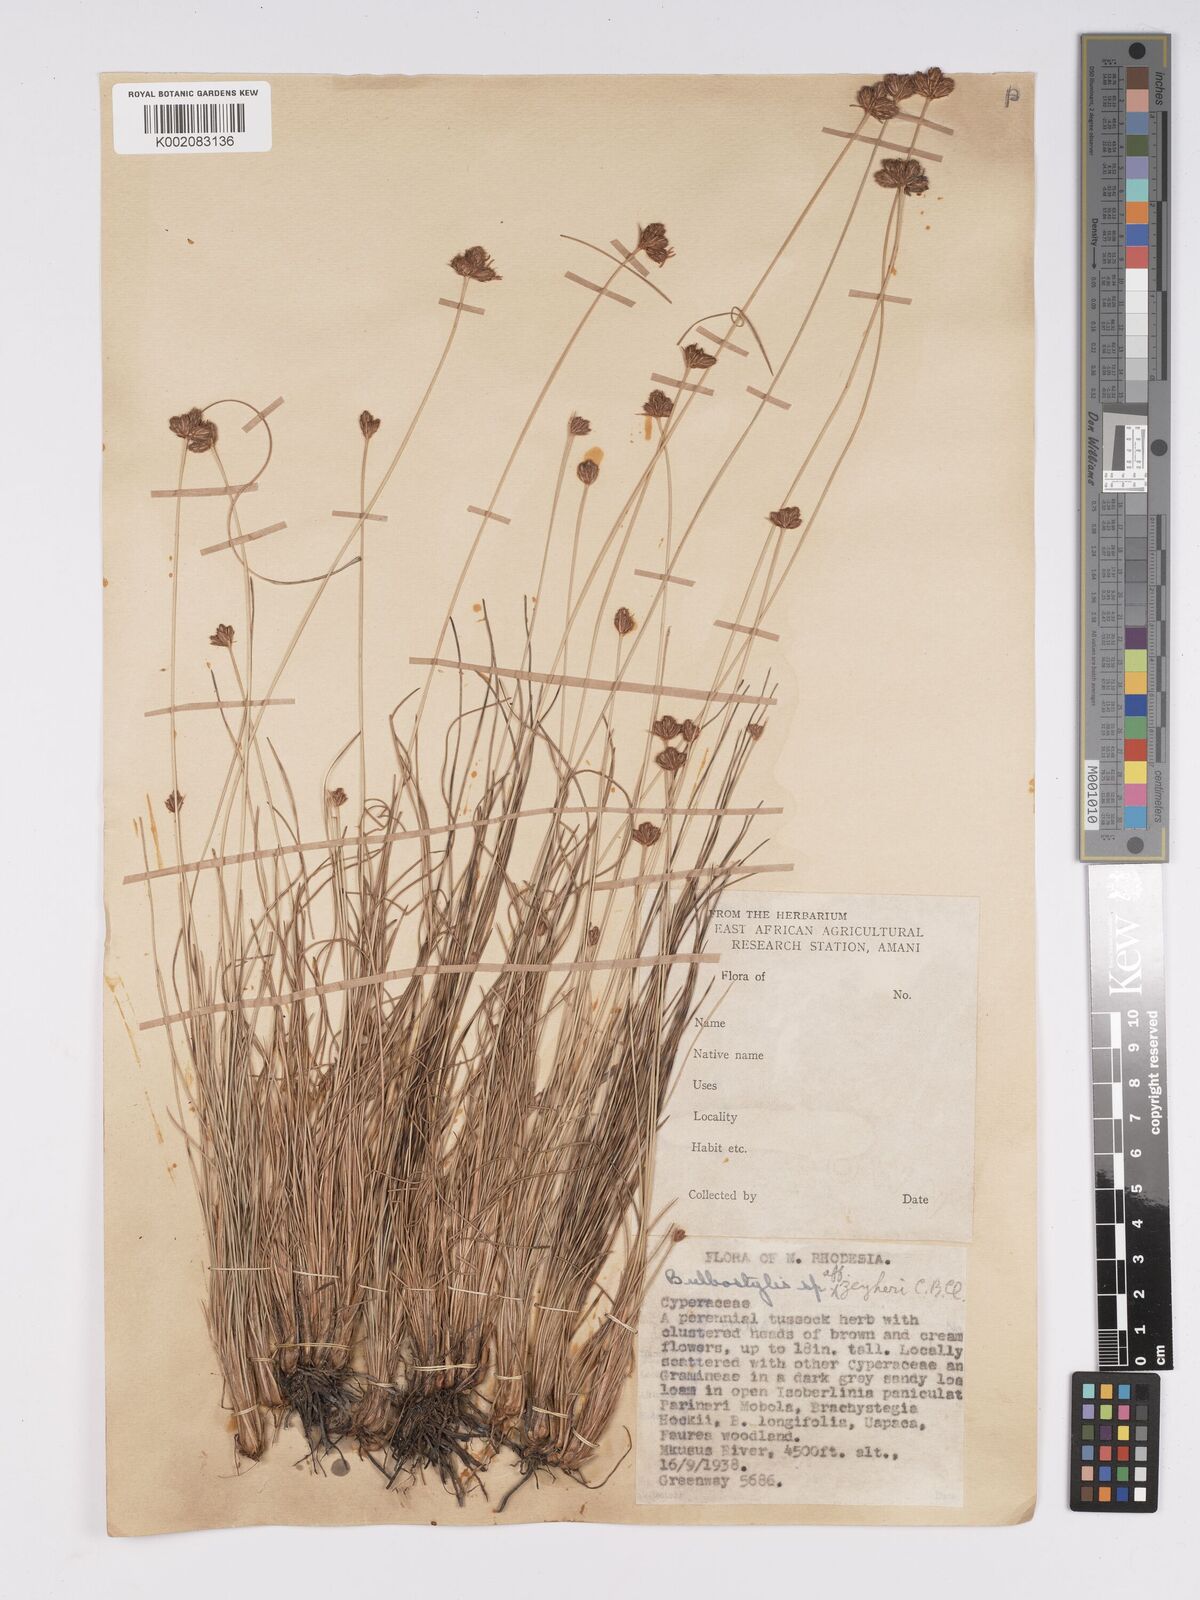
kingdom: Plantae
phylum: Tracheophyta
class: Liliopsida
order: Poales
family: Cyperaceae
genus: Bulbostylis
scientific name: Bulbostylis schoenoides
